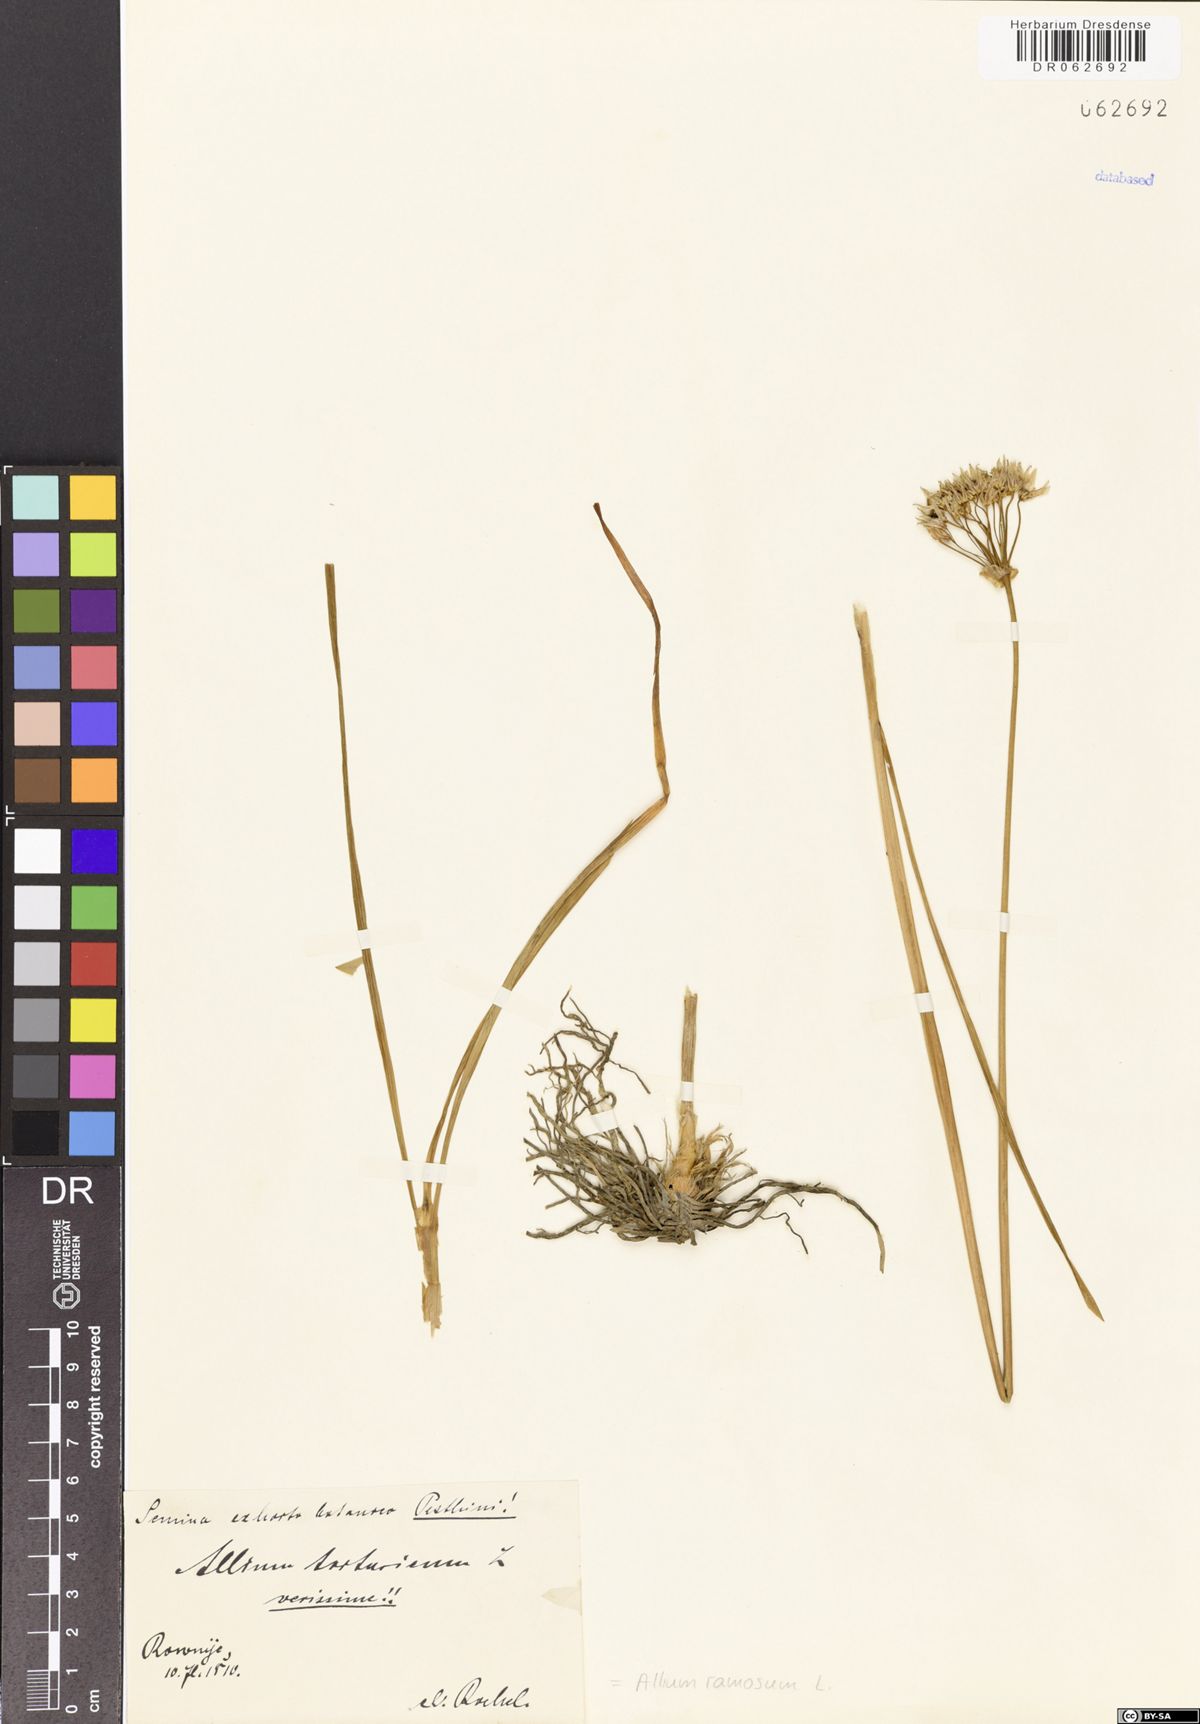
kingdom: Plantae
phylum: Tracheophyta
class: Liliopsida
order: Asparagales
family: Amaryllidaceae
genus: Allium
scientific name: Allium ramosum
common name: Fragrant garlic
